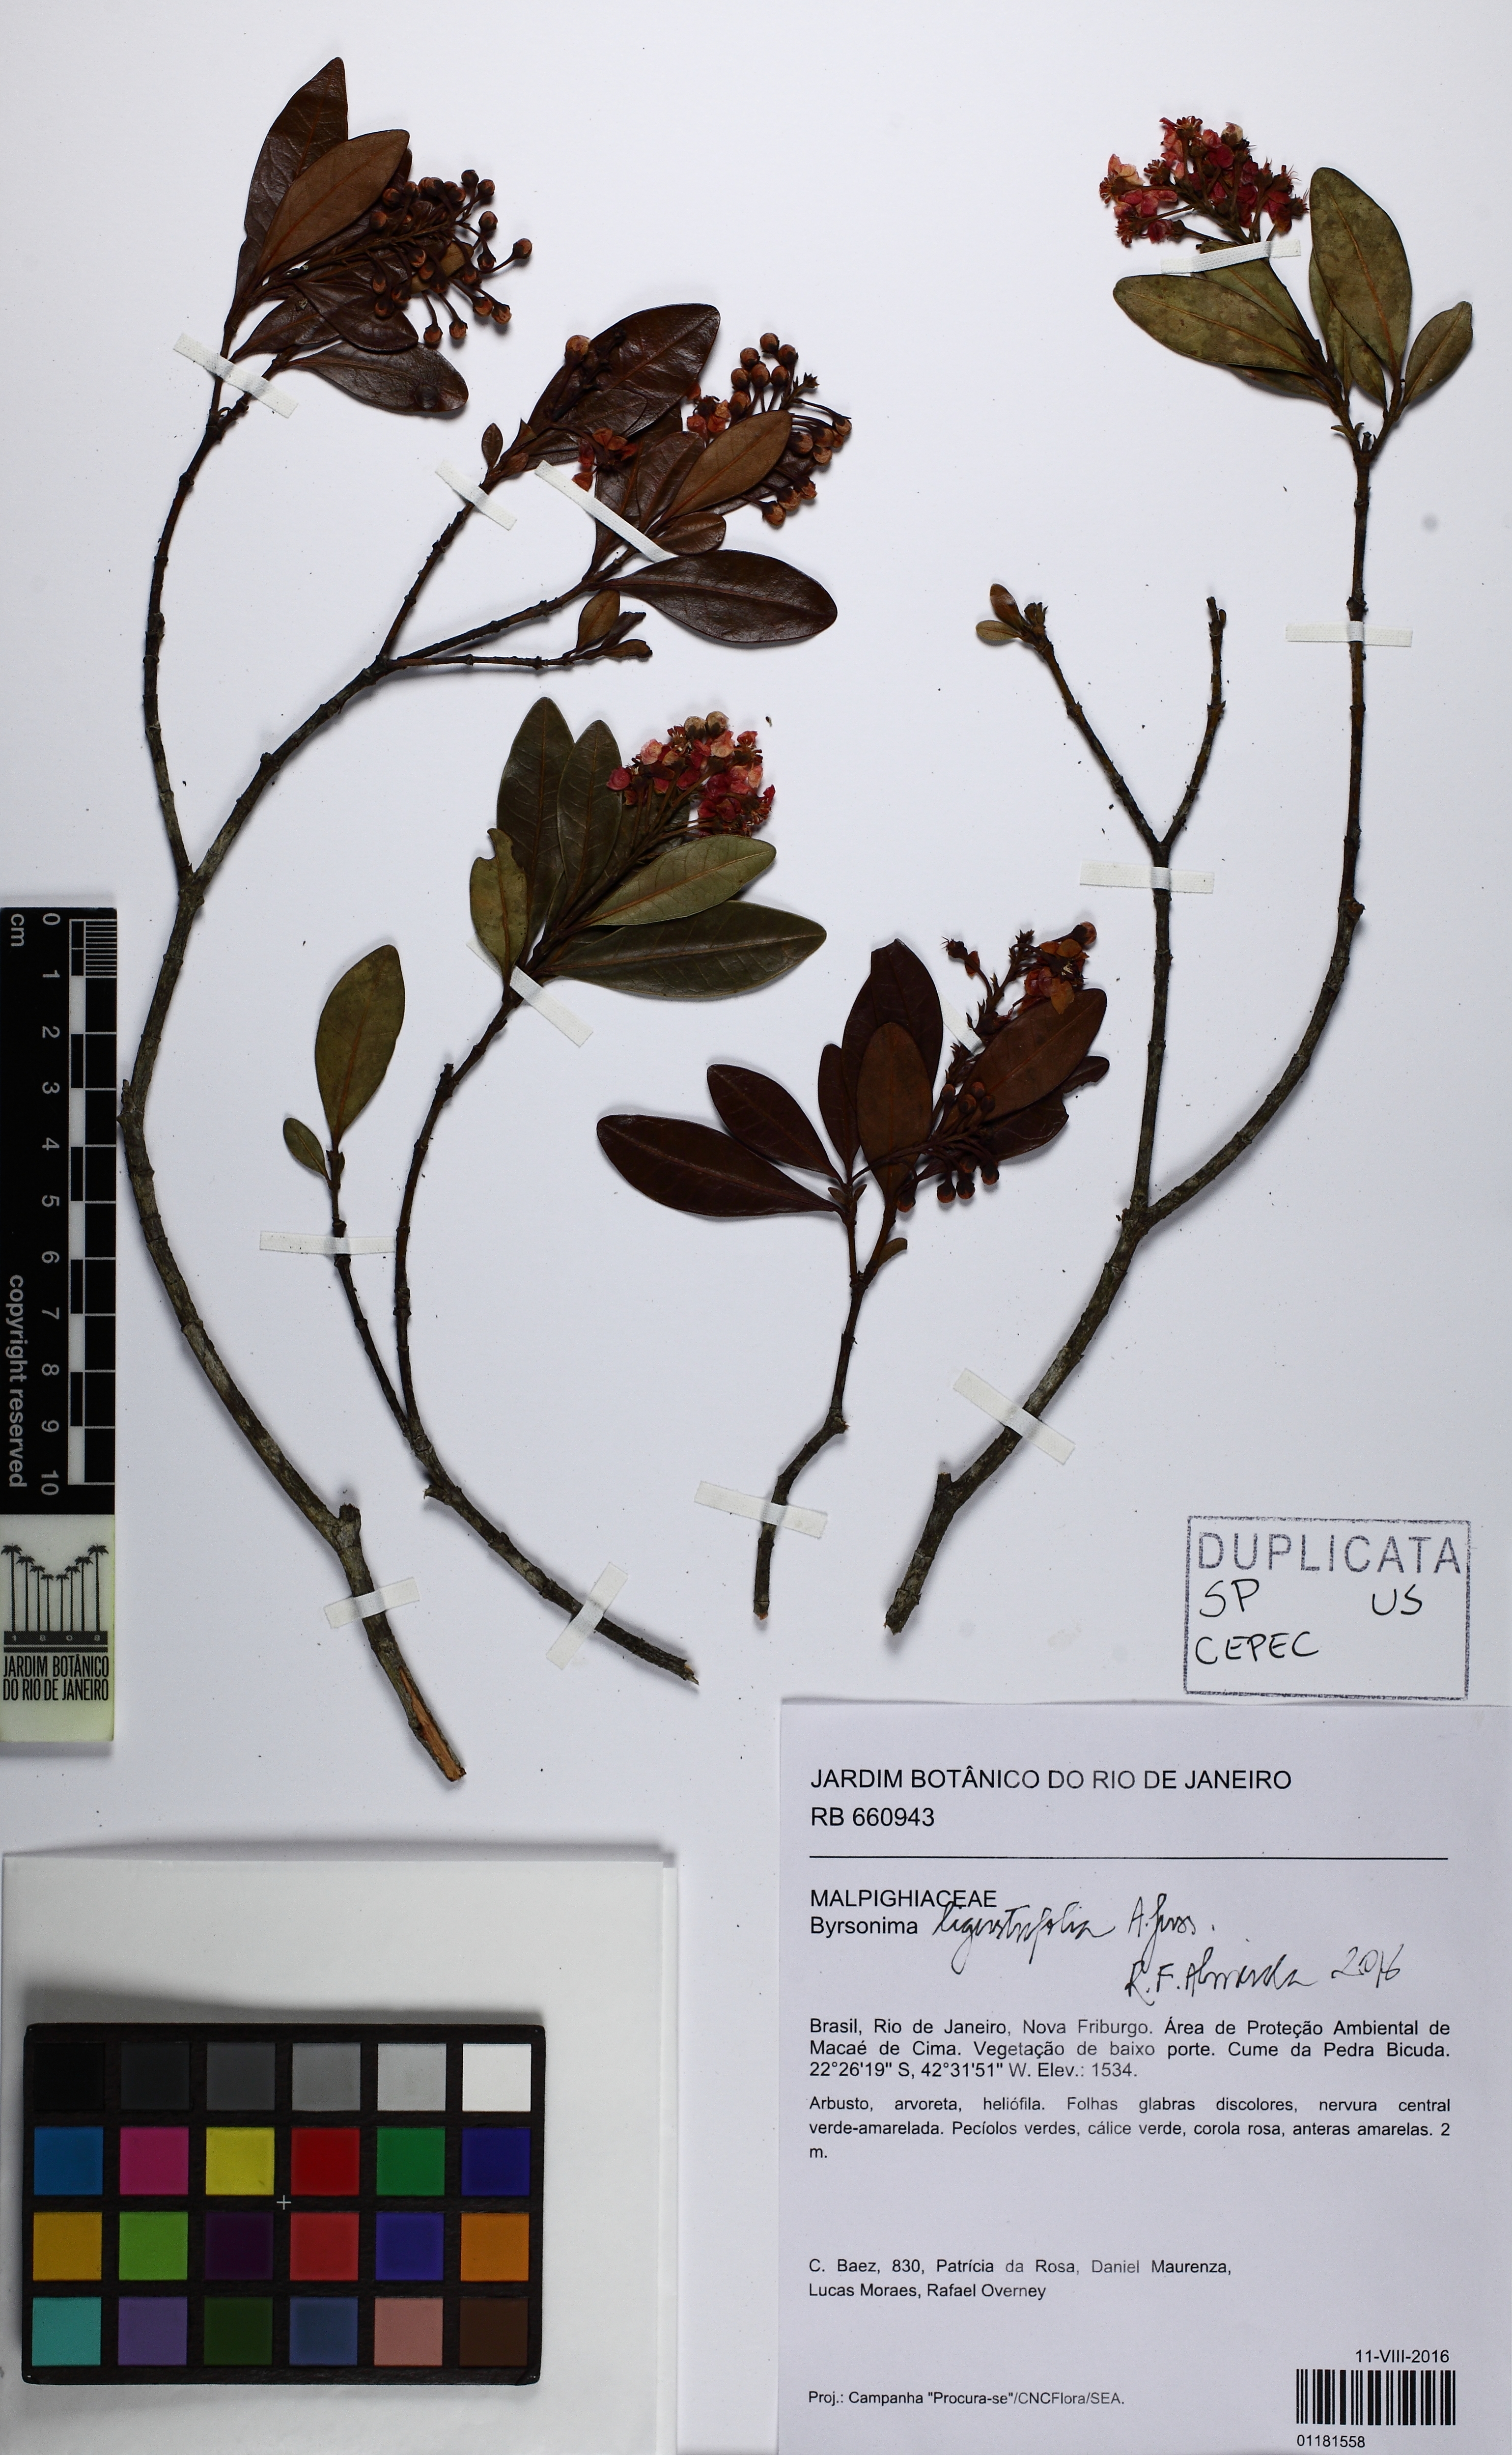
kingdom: Plantae
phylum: Tracheophyta
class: Magnoliopsida
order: Malpighiales
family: Malpighiaceae
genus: Byrsonima
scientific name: Byrsonima ligustrifolia
